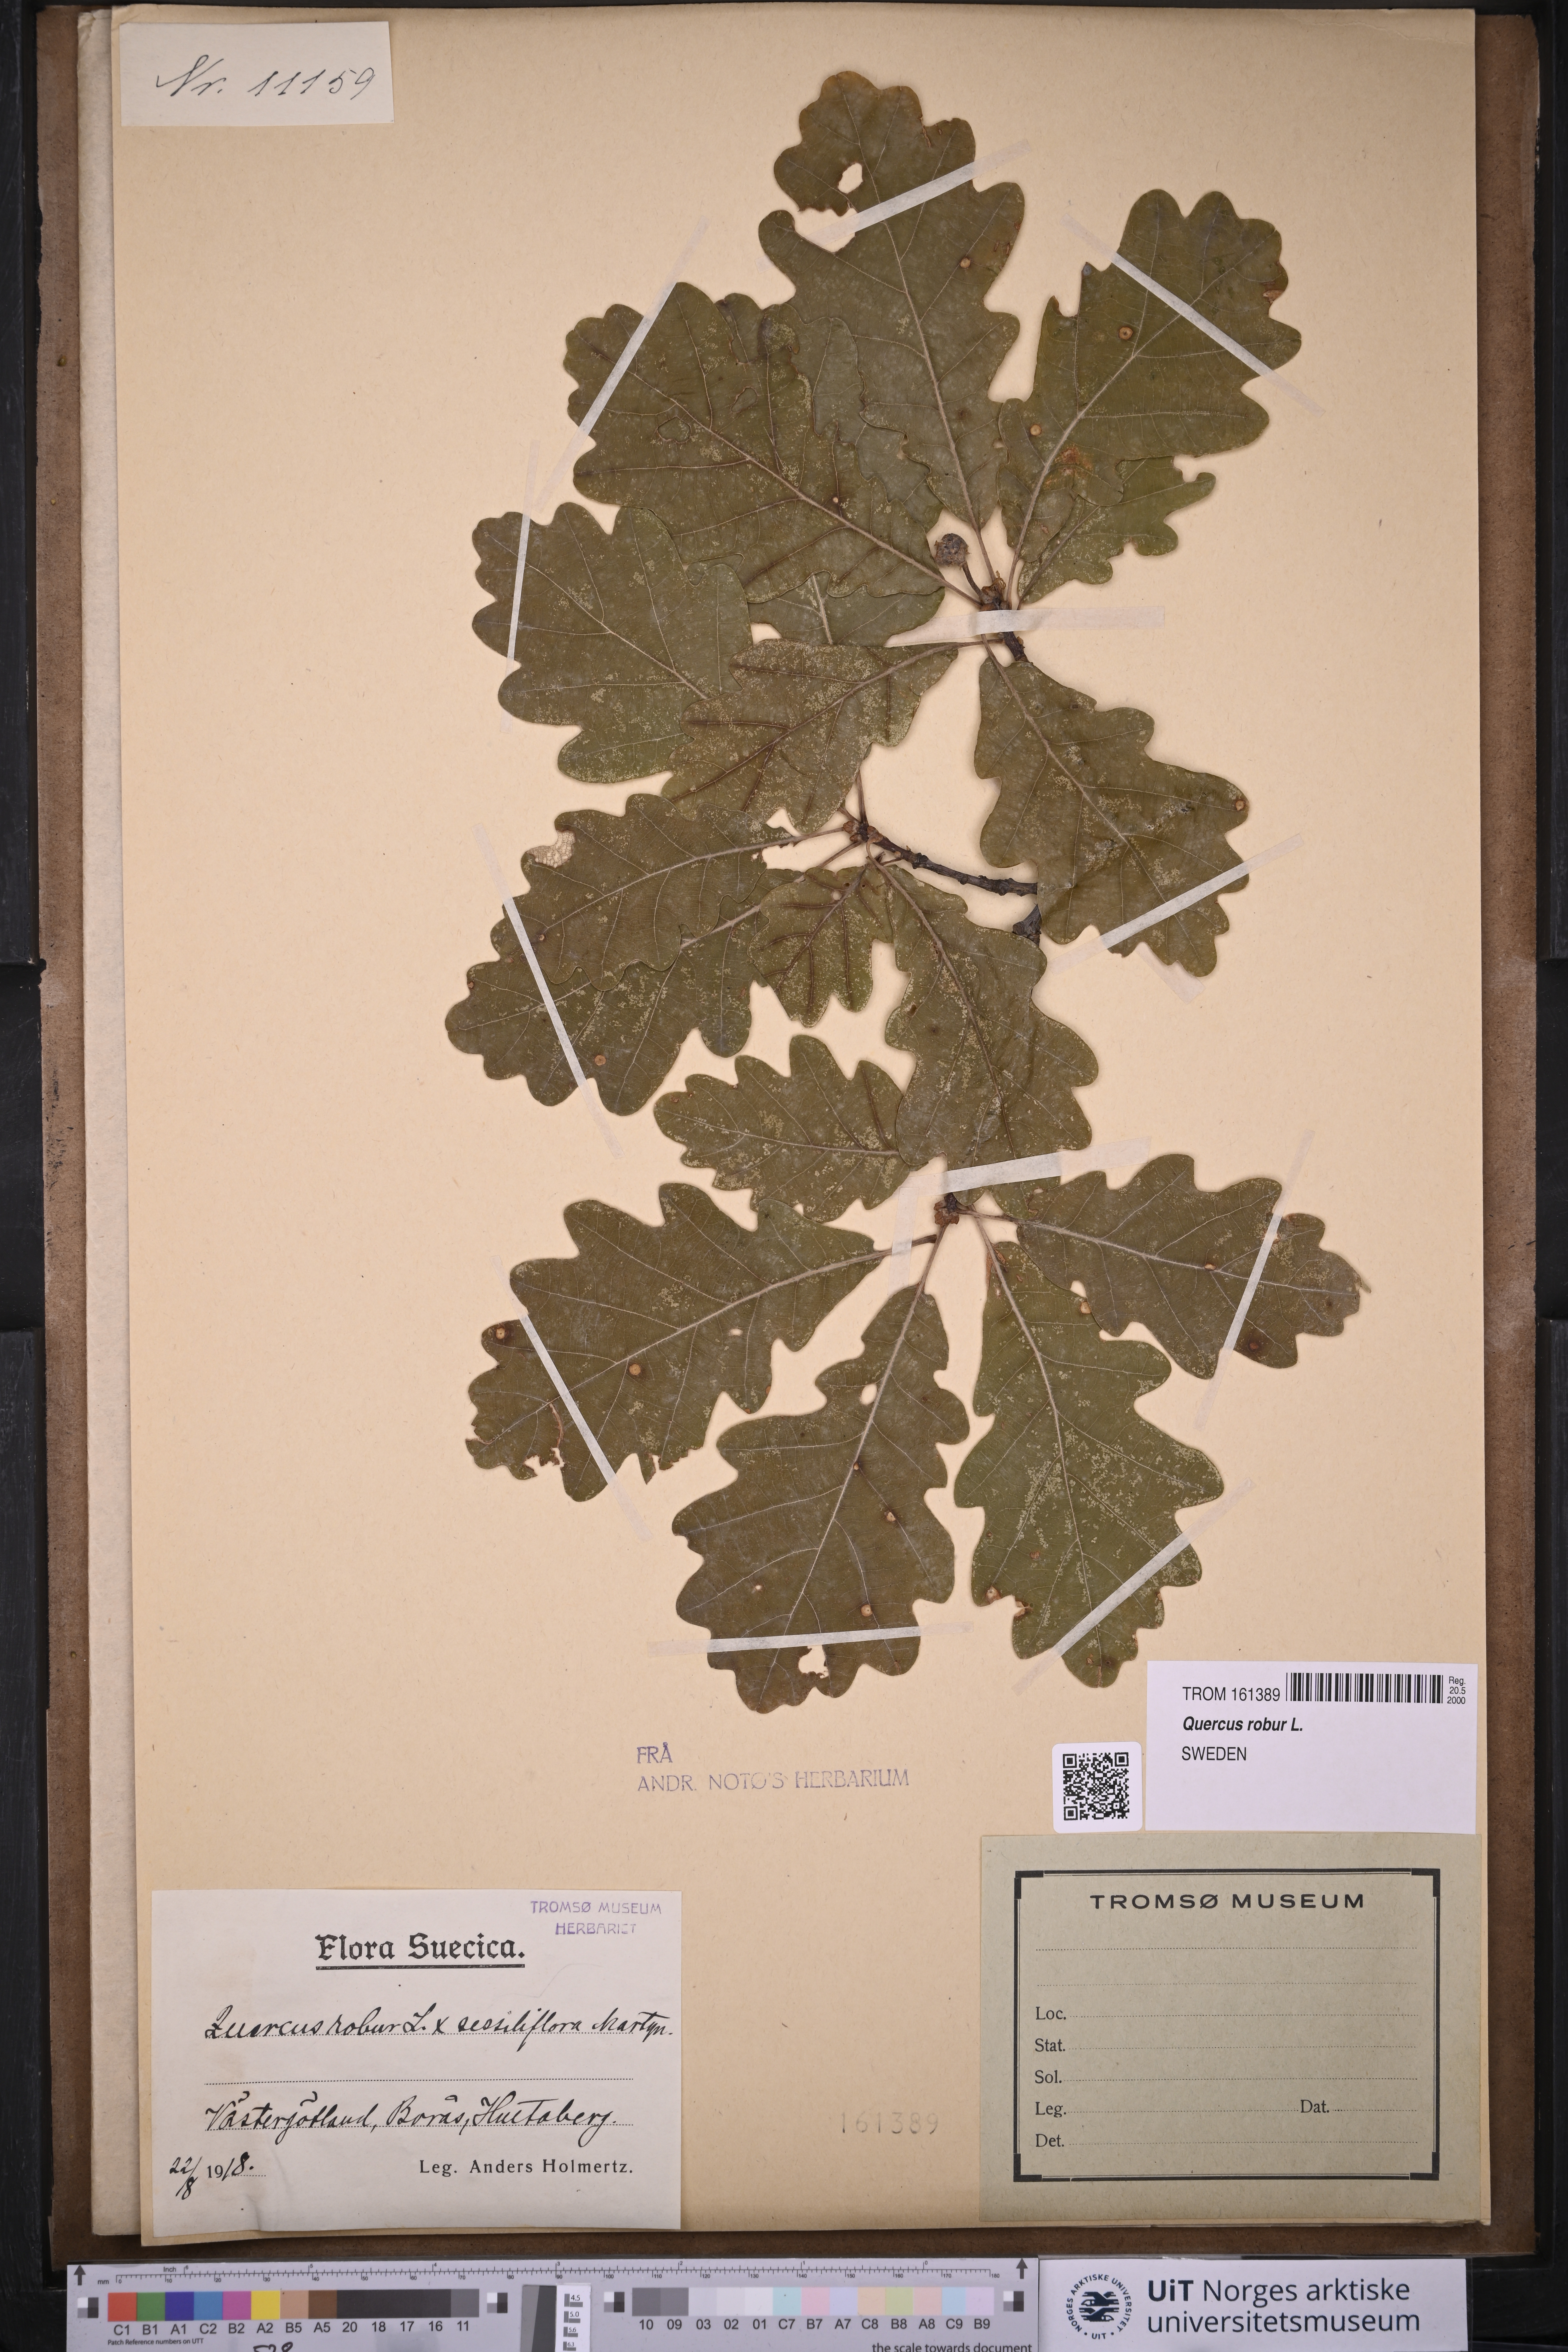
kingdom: Plantae
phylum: Tracheophyta
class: Magnoliopsida
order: Fagales
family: Fagaceae
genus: Quercus
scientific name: Quercus robur
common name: Pedunculate oak
